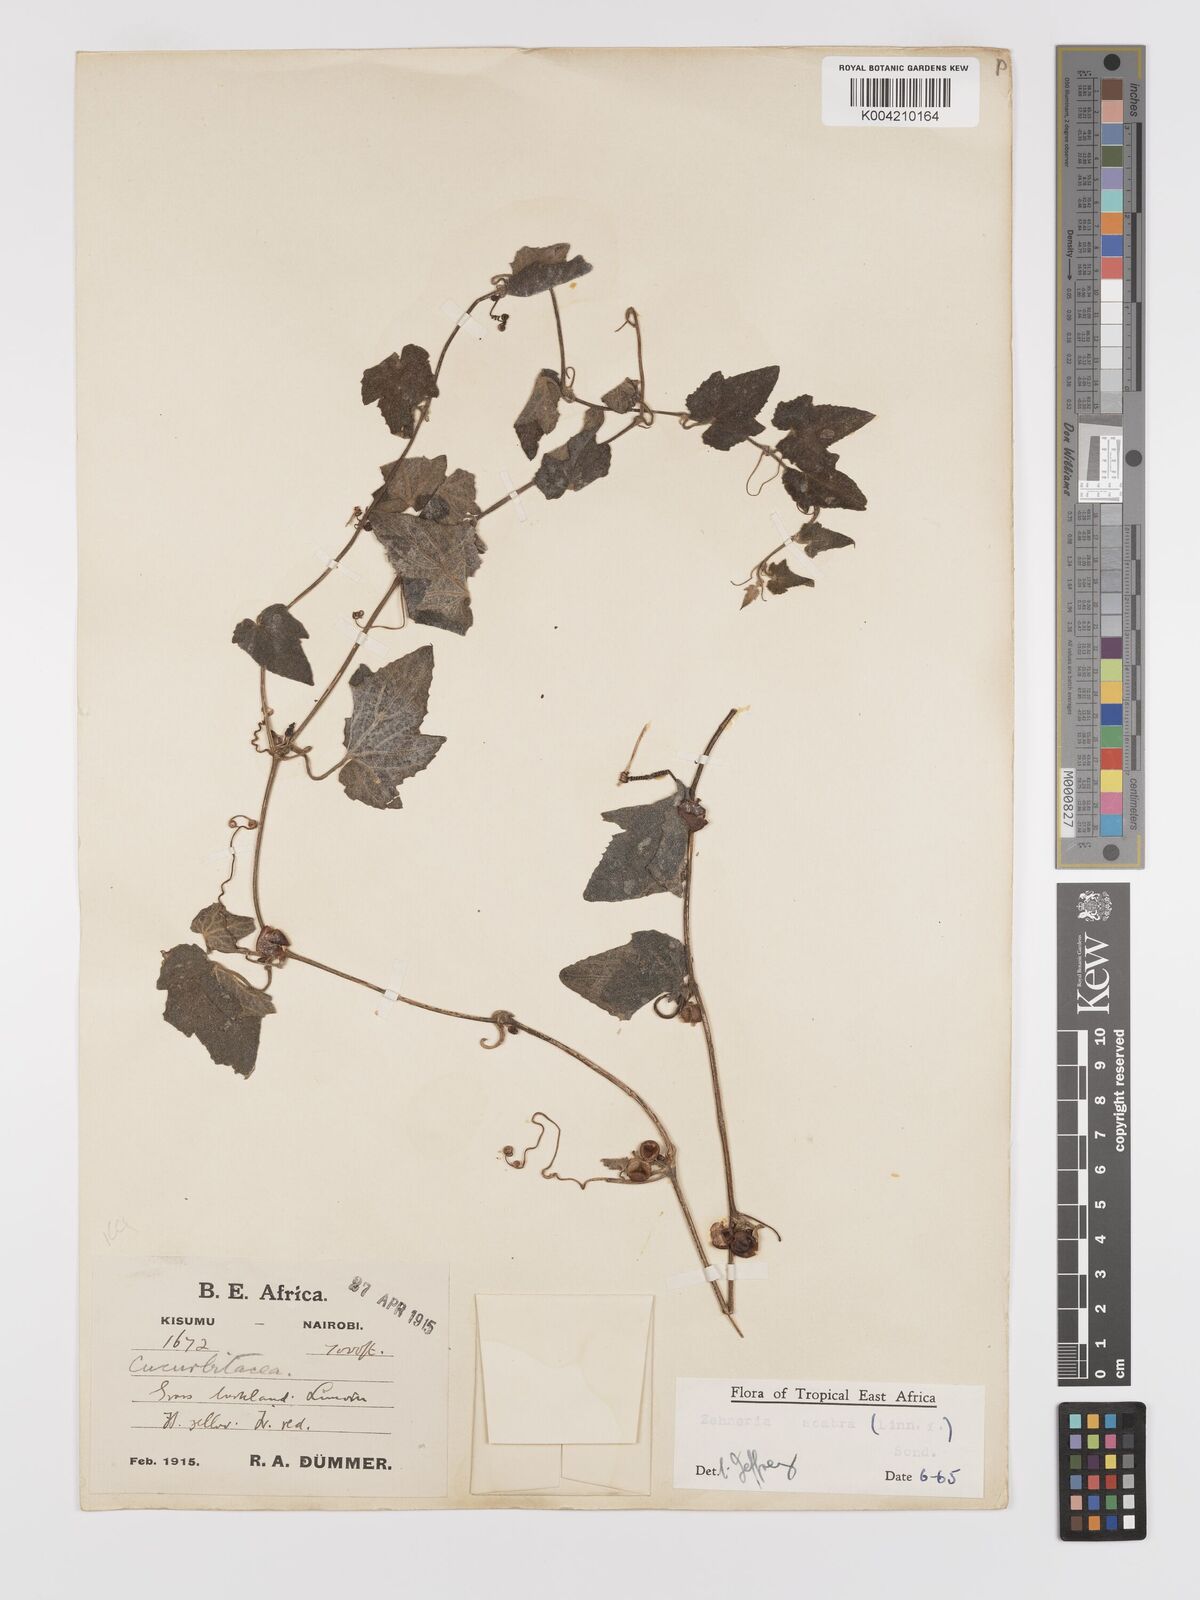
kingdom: Plantae
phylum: Tracheophyta
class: Magnoliopsida
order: Cucurbitales
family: Cucurbitaceae
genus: Zehneria
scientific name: Zehneria scabra
